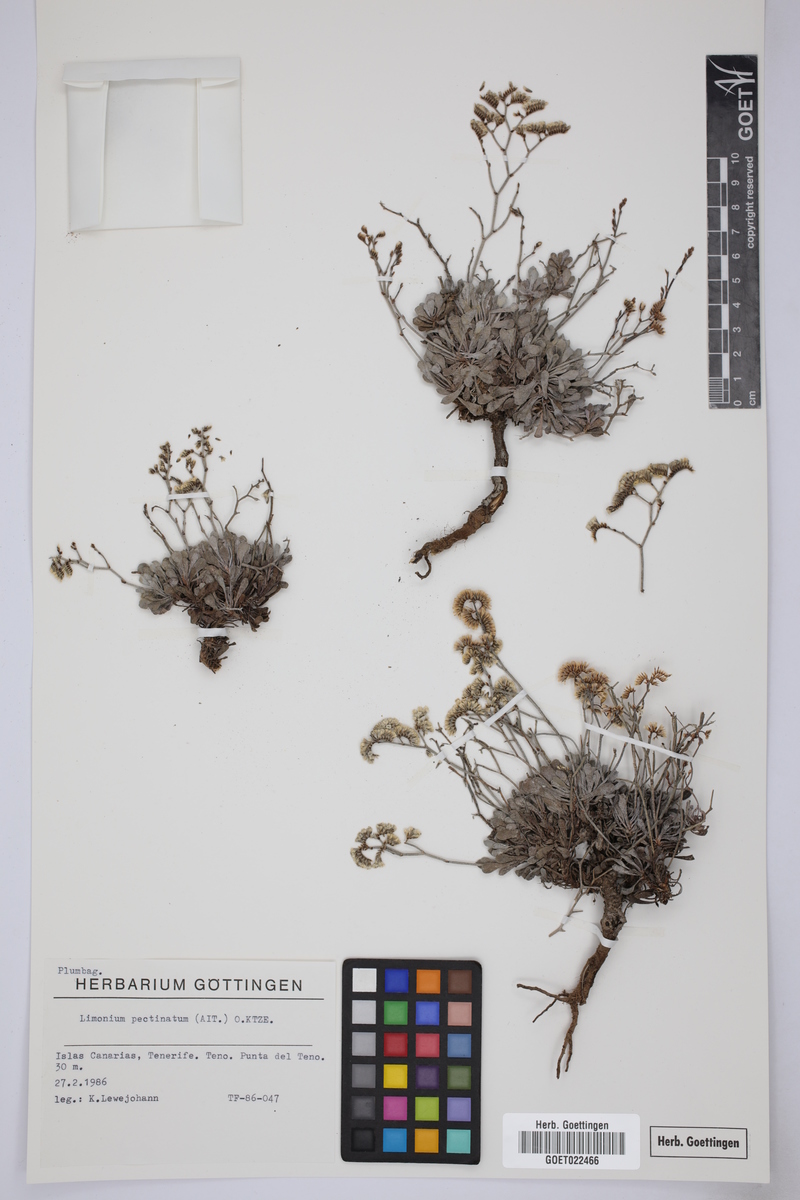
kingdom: Plantae
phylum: Tracheophyta
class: Magnoliopsida
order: Caryophyllales
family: Plumbaginaceae
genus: Limonium
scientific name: Limonium pectinatum
